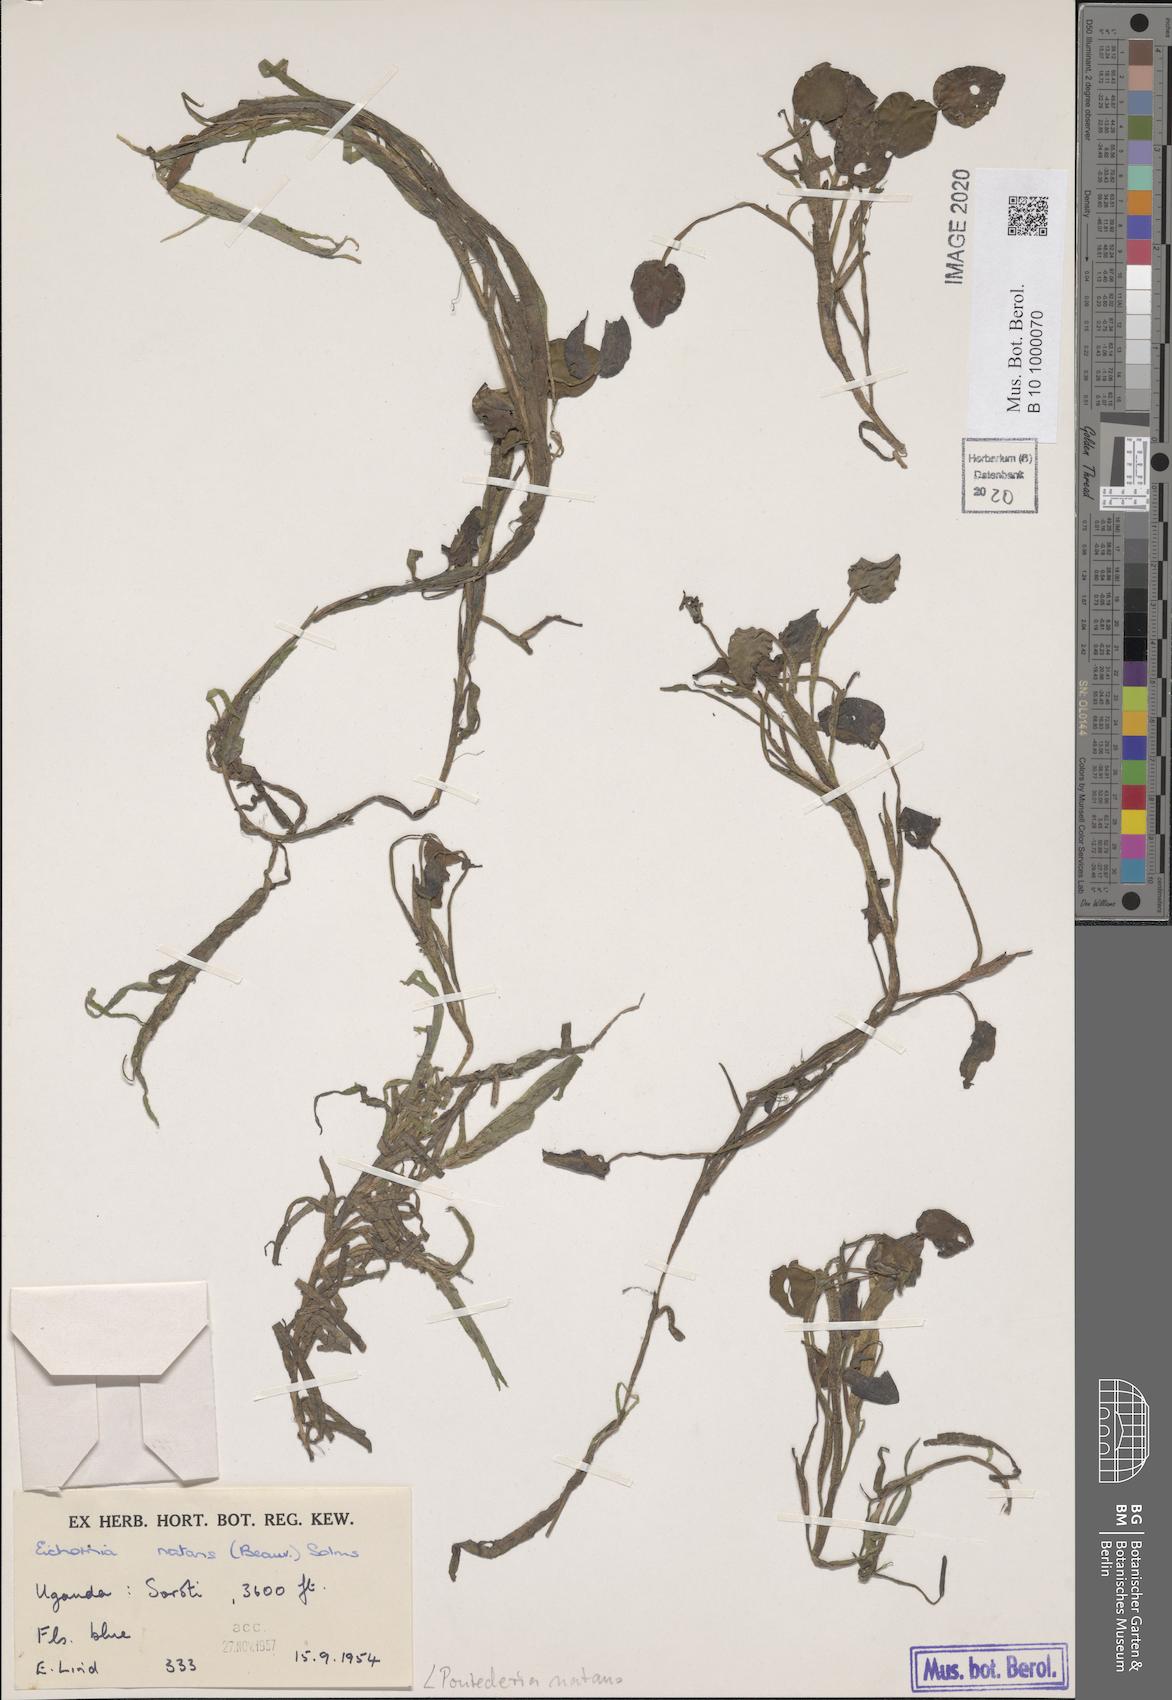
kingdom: Plantae
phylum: Tracheophyta
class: Liliopsida
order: Commelinales
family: Pontederiaceae
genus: Pontederia
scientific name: Pontederia natans
